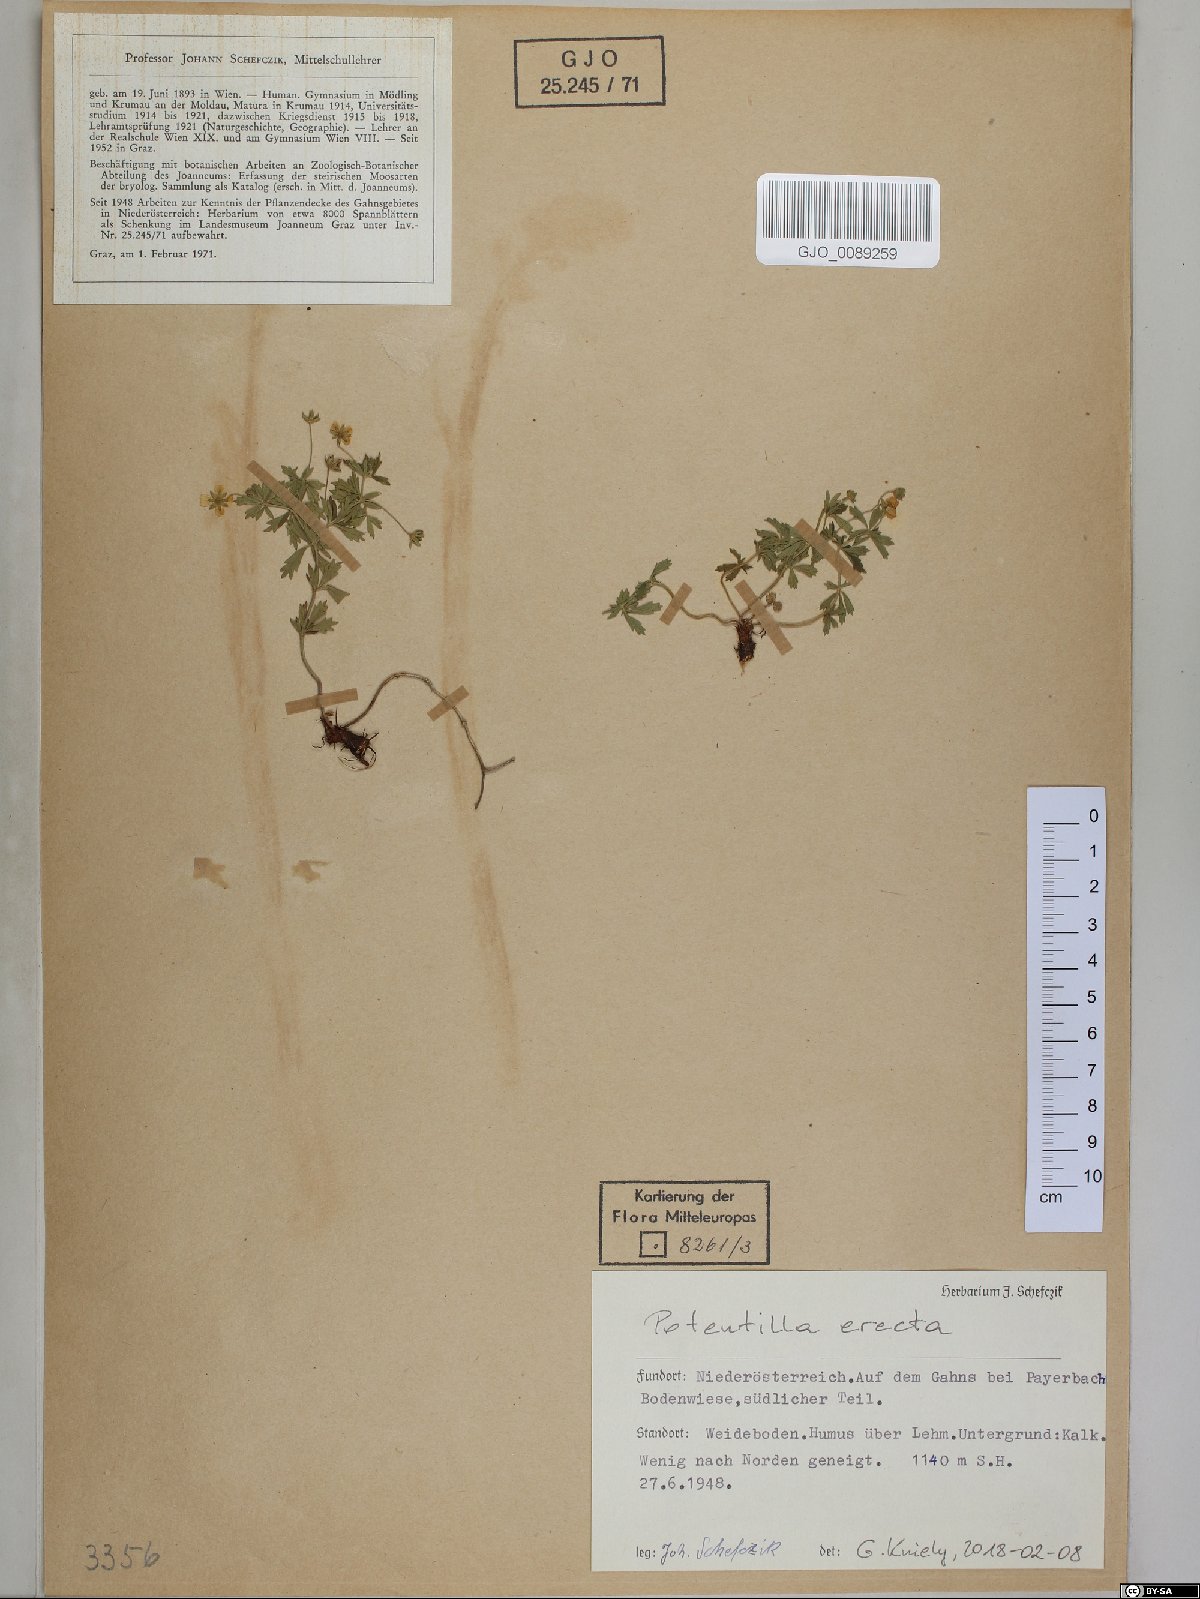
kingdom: Plantae
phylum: Tracheophyta
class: Magnoliopsida
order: Rosales
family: Rosaceae
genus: Potentilla
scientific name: Potentilla erecta
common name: Tormentil
